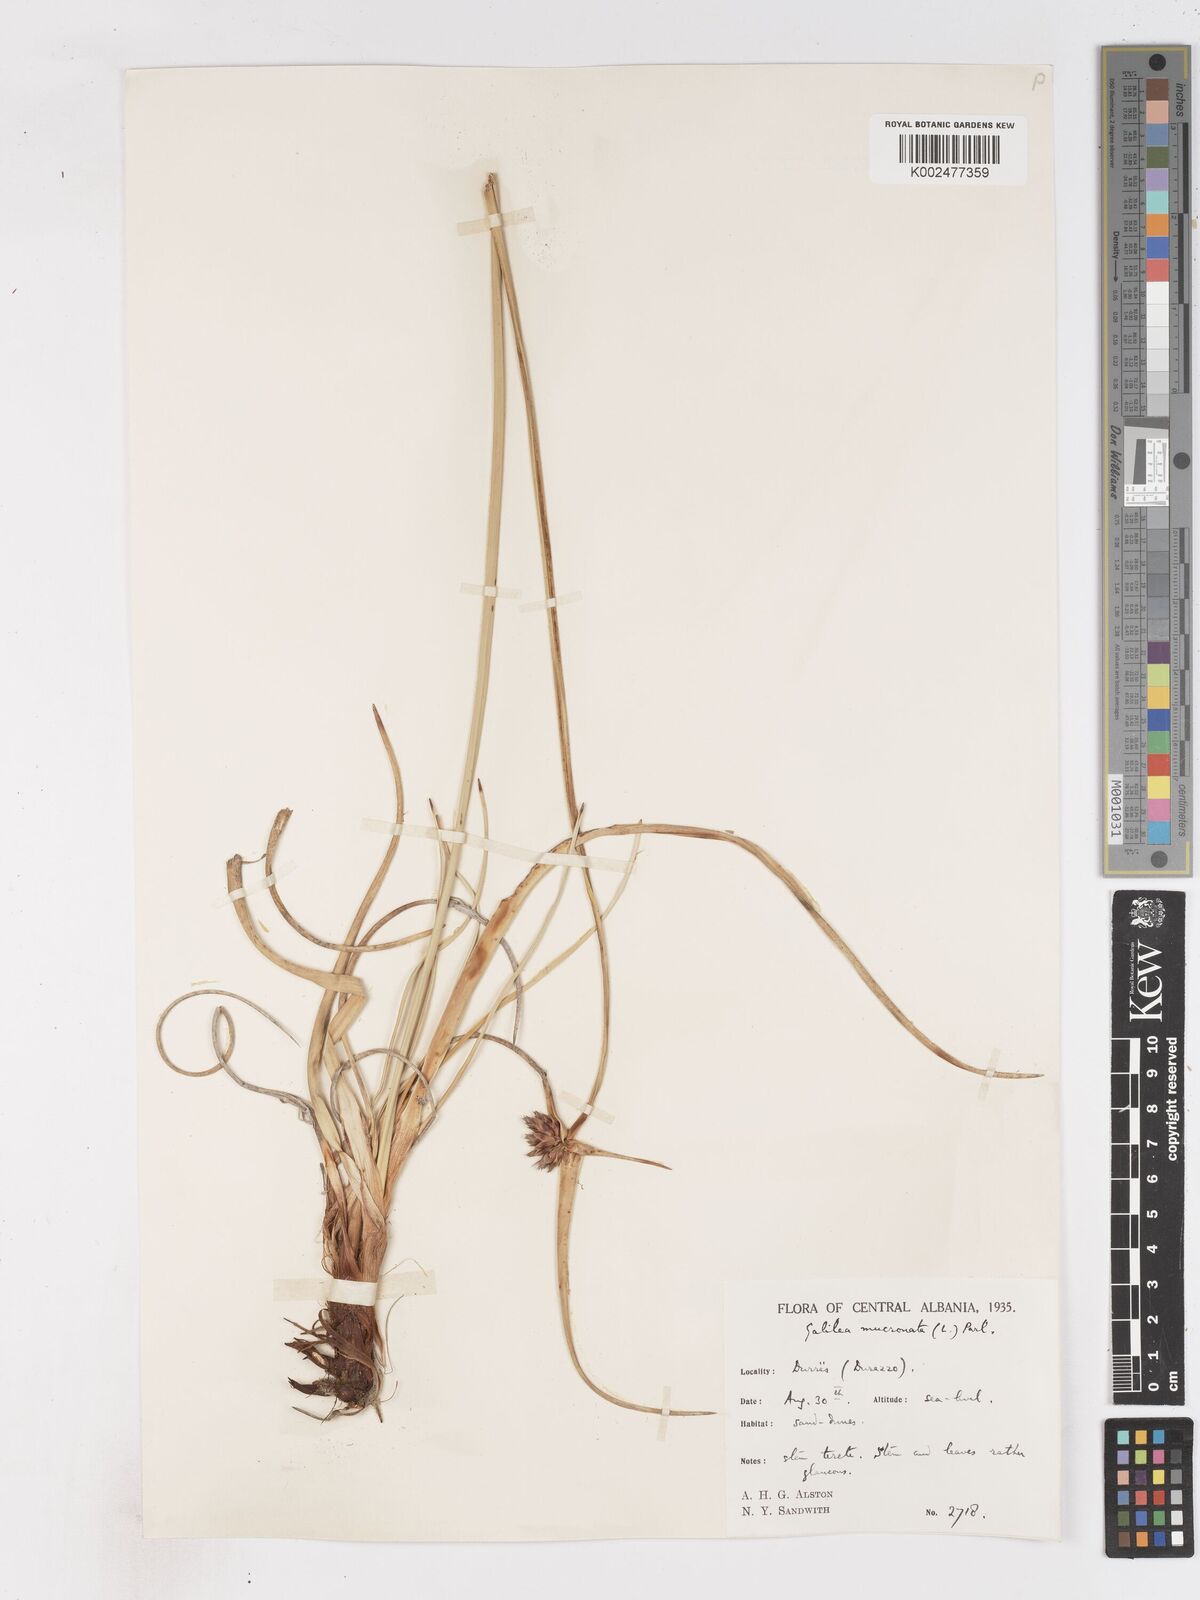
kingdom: Plantae
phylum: Tracheophyta
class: Liliopsida
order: Poales
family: Cyperaceae
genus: Cyperus
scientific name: Cyperus capitatus
